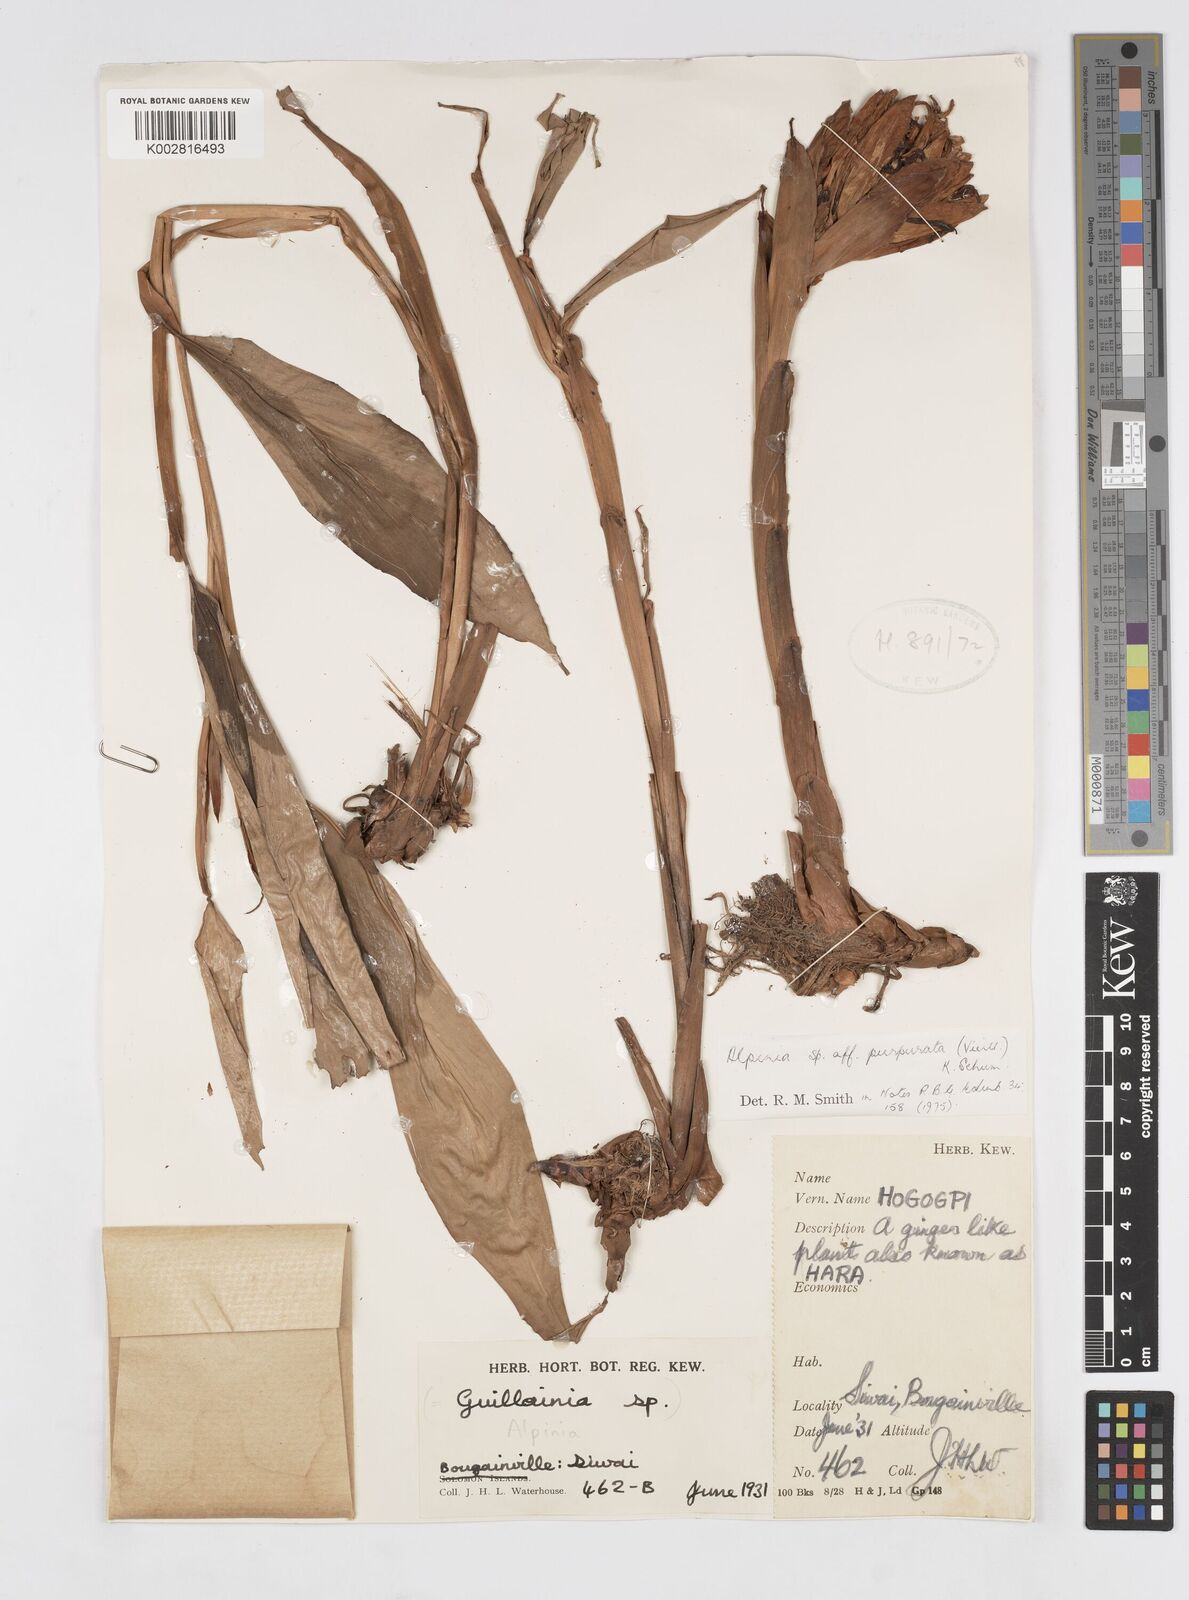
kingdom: Plantae
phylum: Tracheophyta
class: Liliopsida
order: Zingiberales
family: Zingiberaceae
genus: Alpinia
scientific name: Alpinia purpurata
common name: Red ginger
